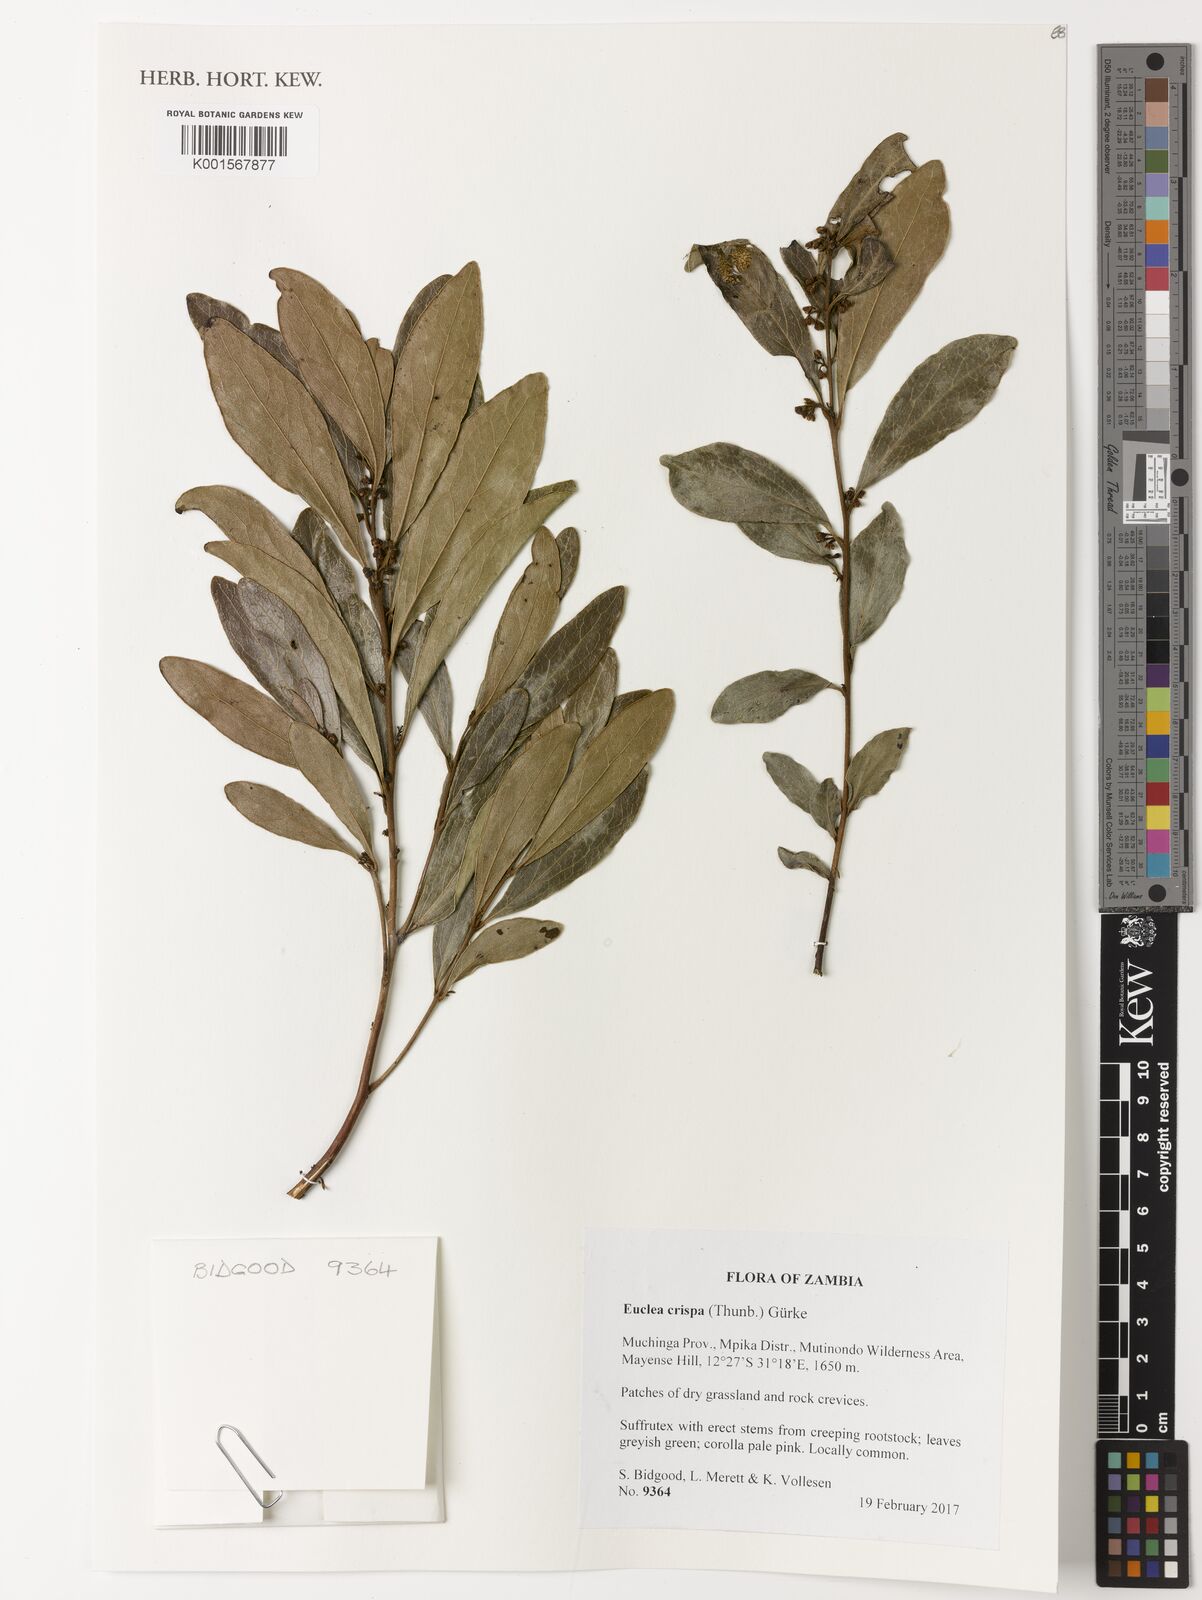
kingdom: Plantae
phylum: Tracheophyta
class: Magnoliopsida
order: Ericales
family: Ebenaceae
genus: Euclea
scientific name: Euclea crispa
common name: Blue guarri
